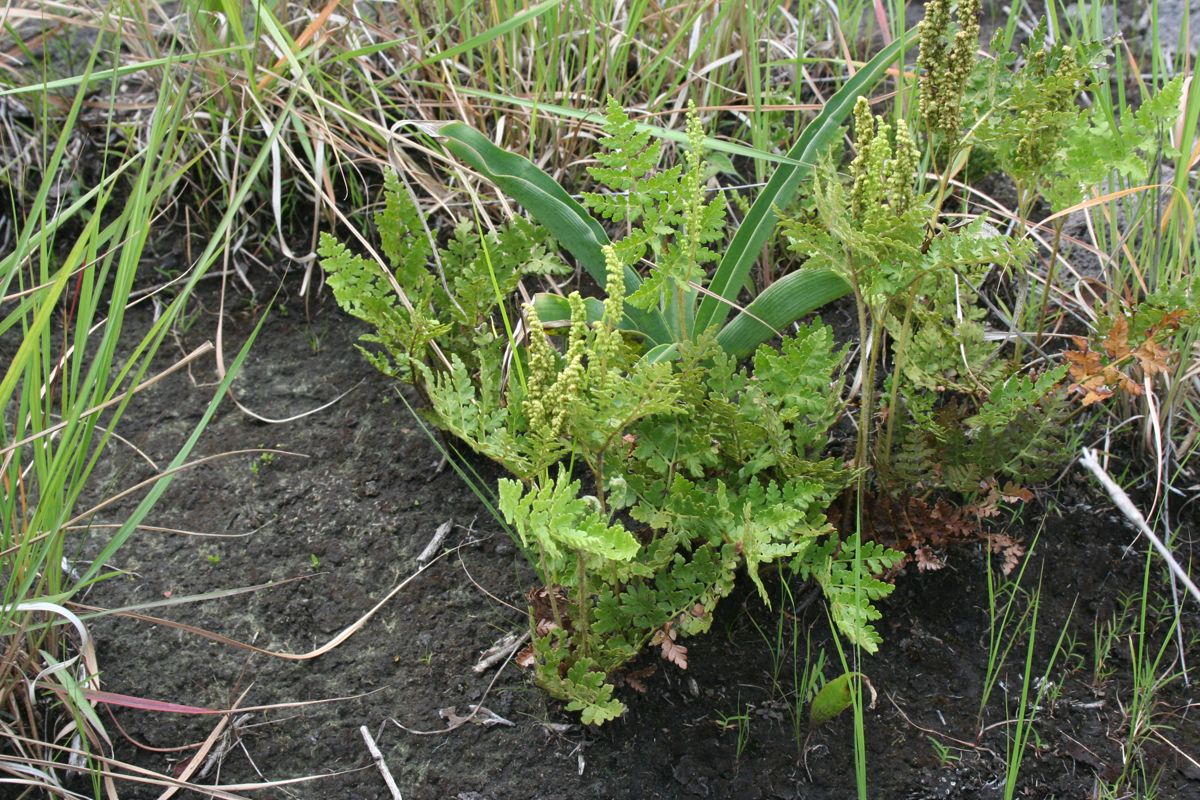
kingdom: Plantae
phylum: Tracheophyta
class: Polypodiopsida
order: Schizaeales
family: Anemiaceae
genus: Anemia
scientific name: Anemia guatemalensis
